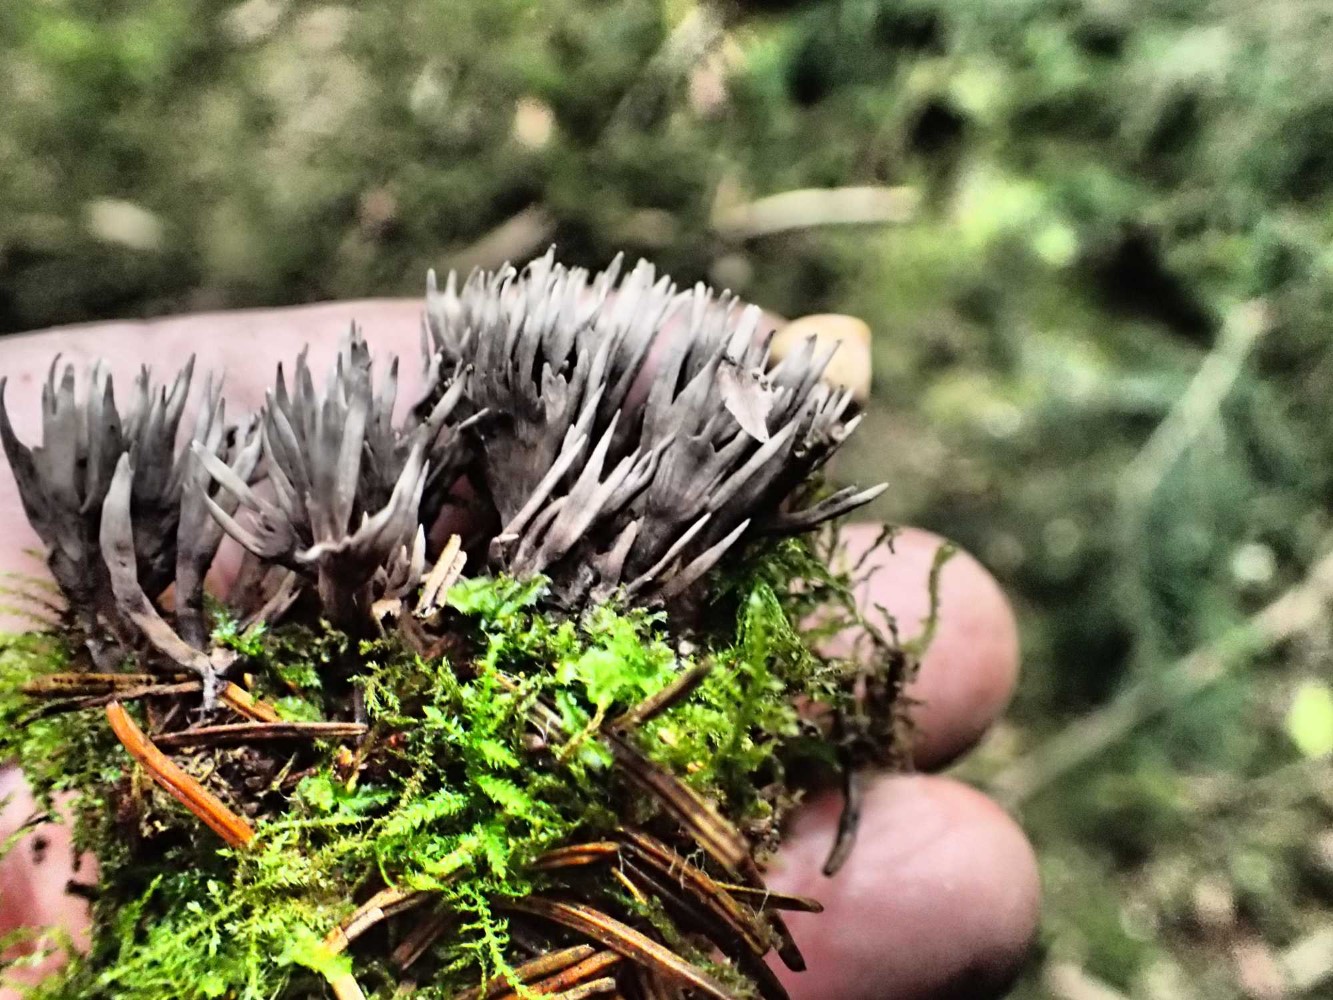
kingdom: Fungi
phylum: Basidiomycota
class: Agaricomycetes
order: Thelephorales
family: Thelephoraceae
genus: Thelephora
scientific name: Thelephora palmata
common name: grenet frynsesvamp
